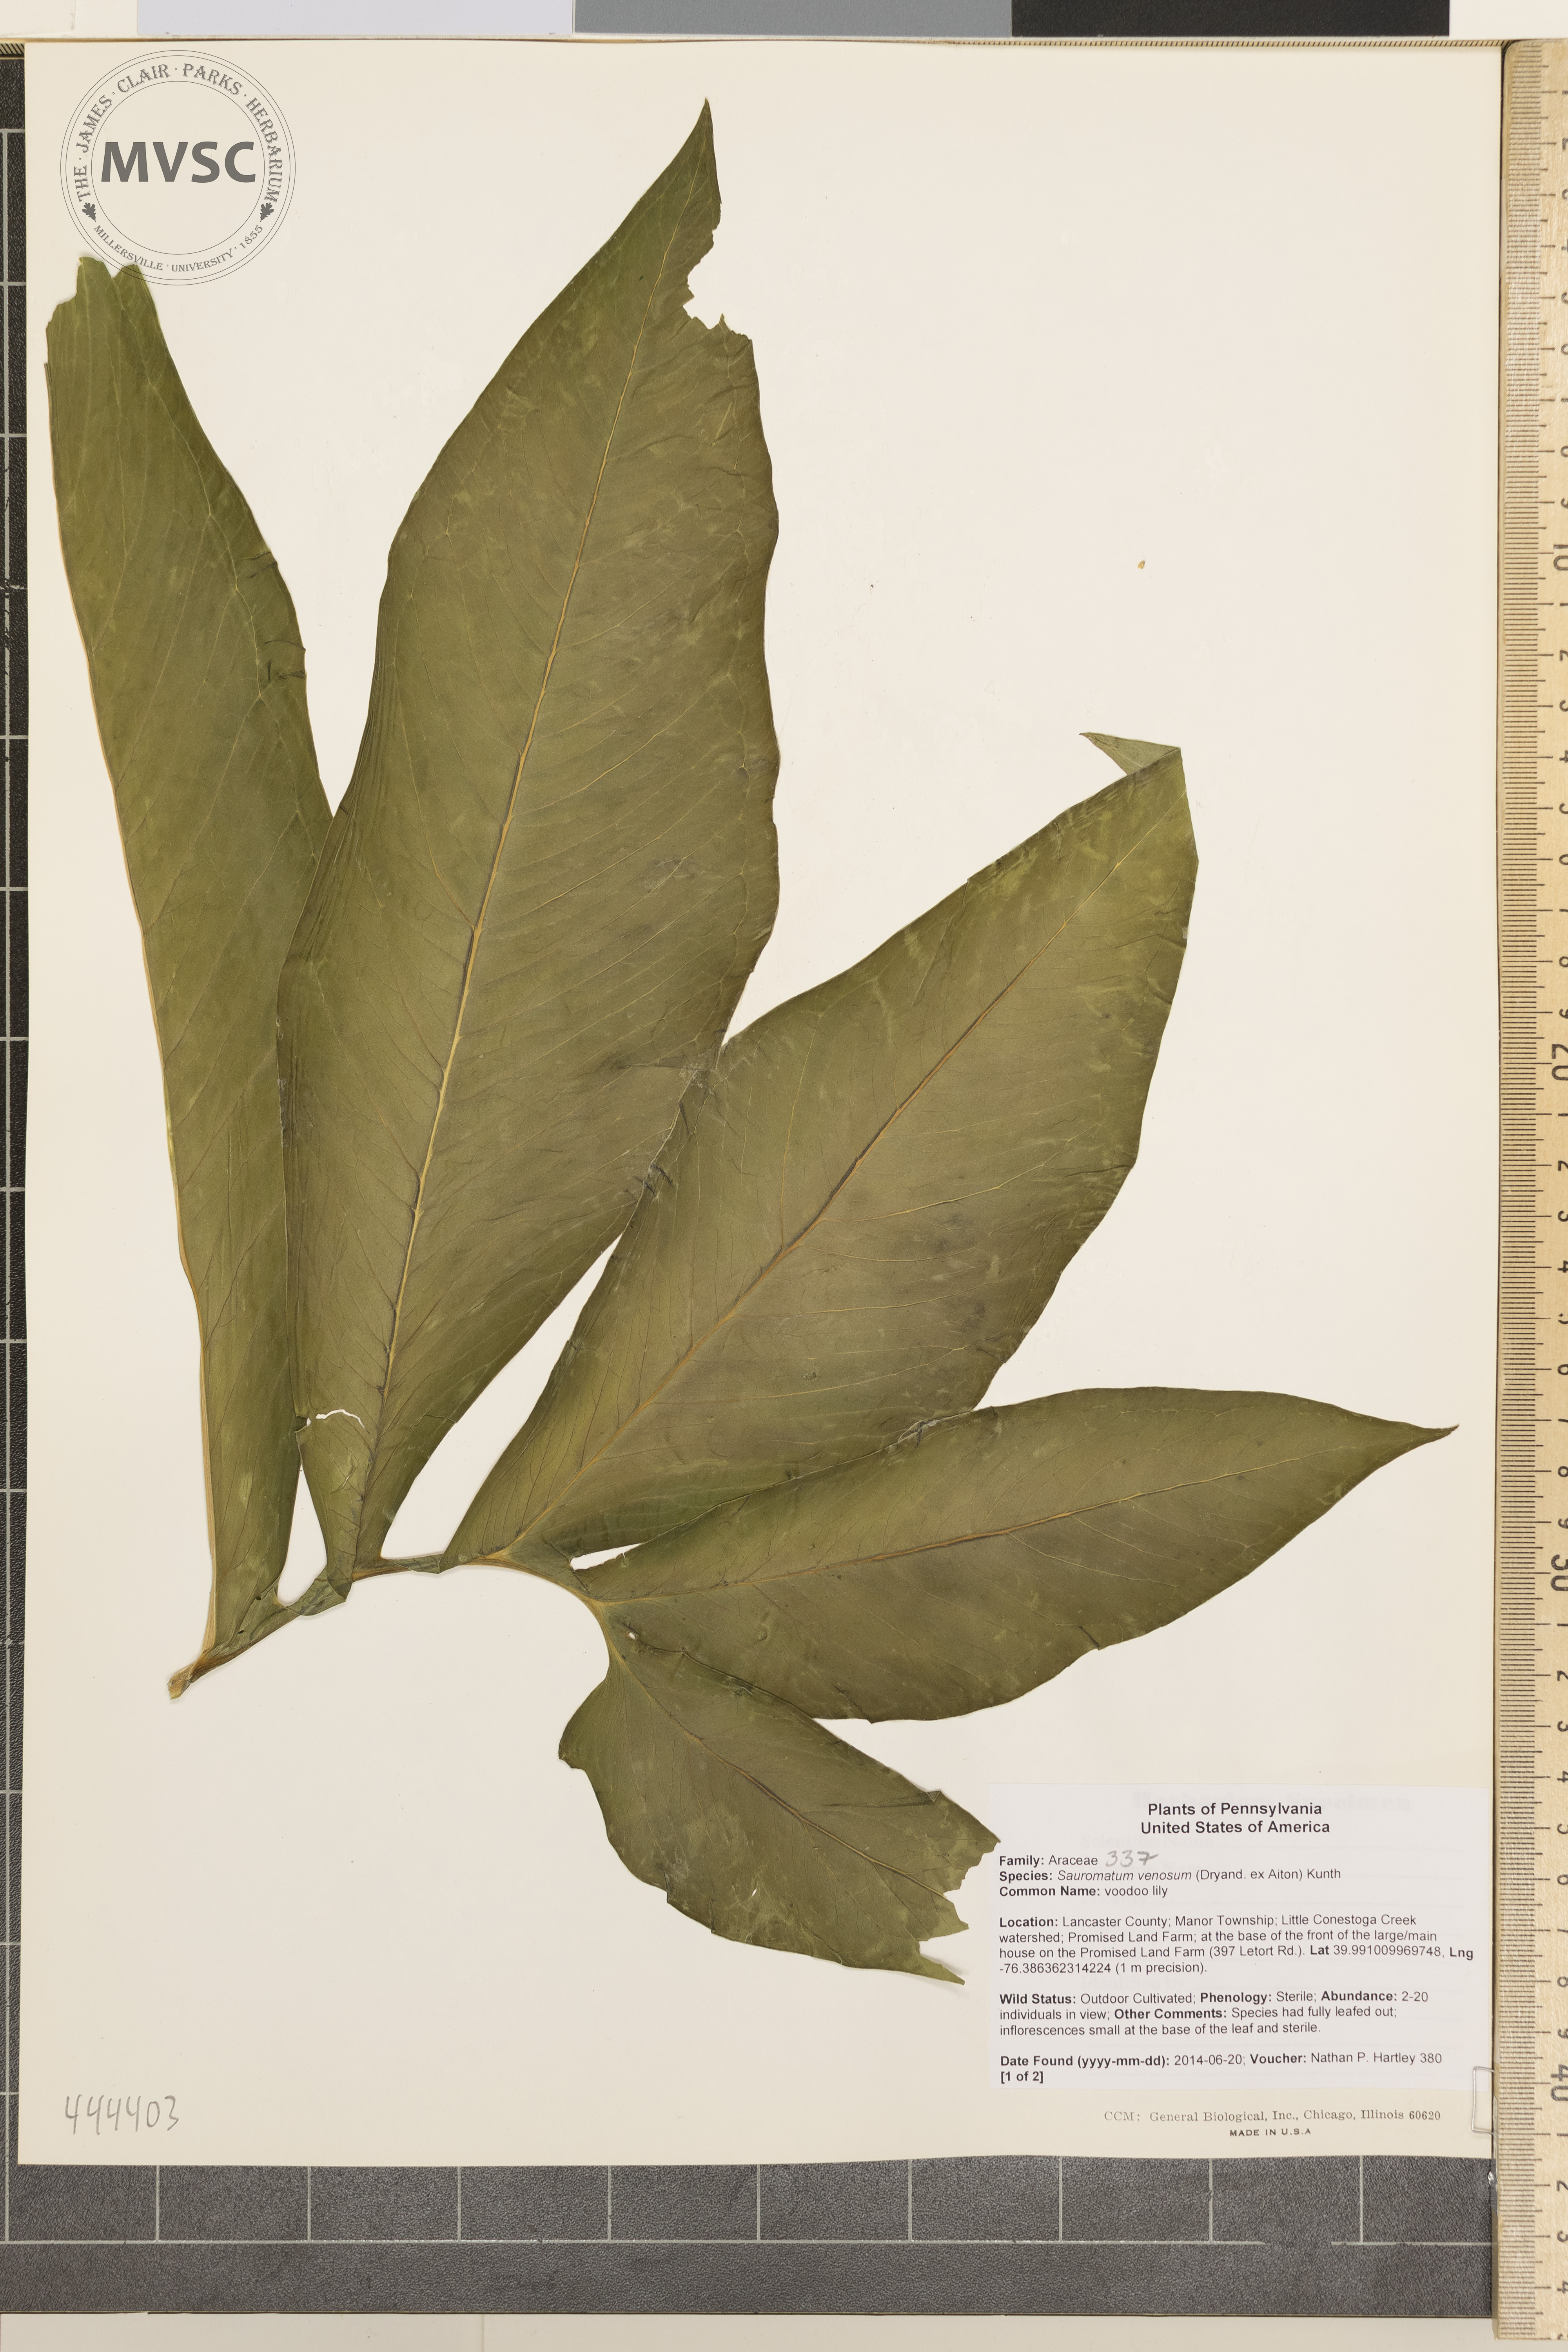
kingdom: Plantae
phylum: Tracheophyta
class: Liliopsida
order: Alismatales
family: Araceae
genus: Sauromatum
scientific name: Sauromatum venosum
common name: voodoo lily
